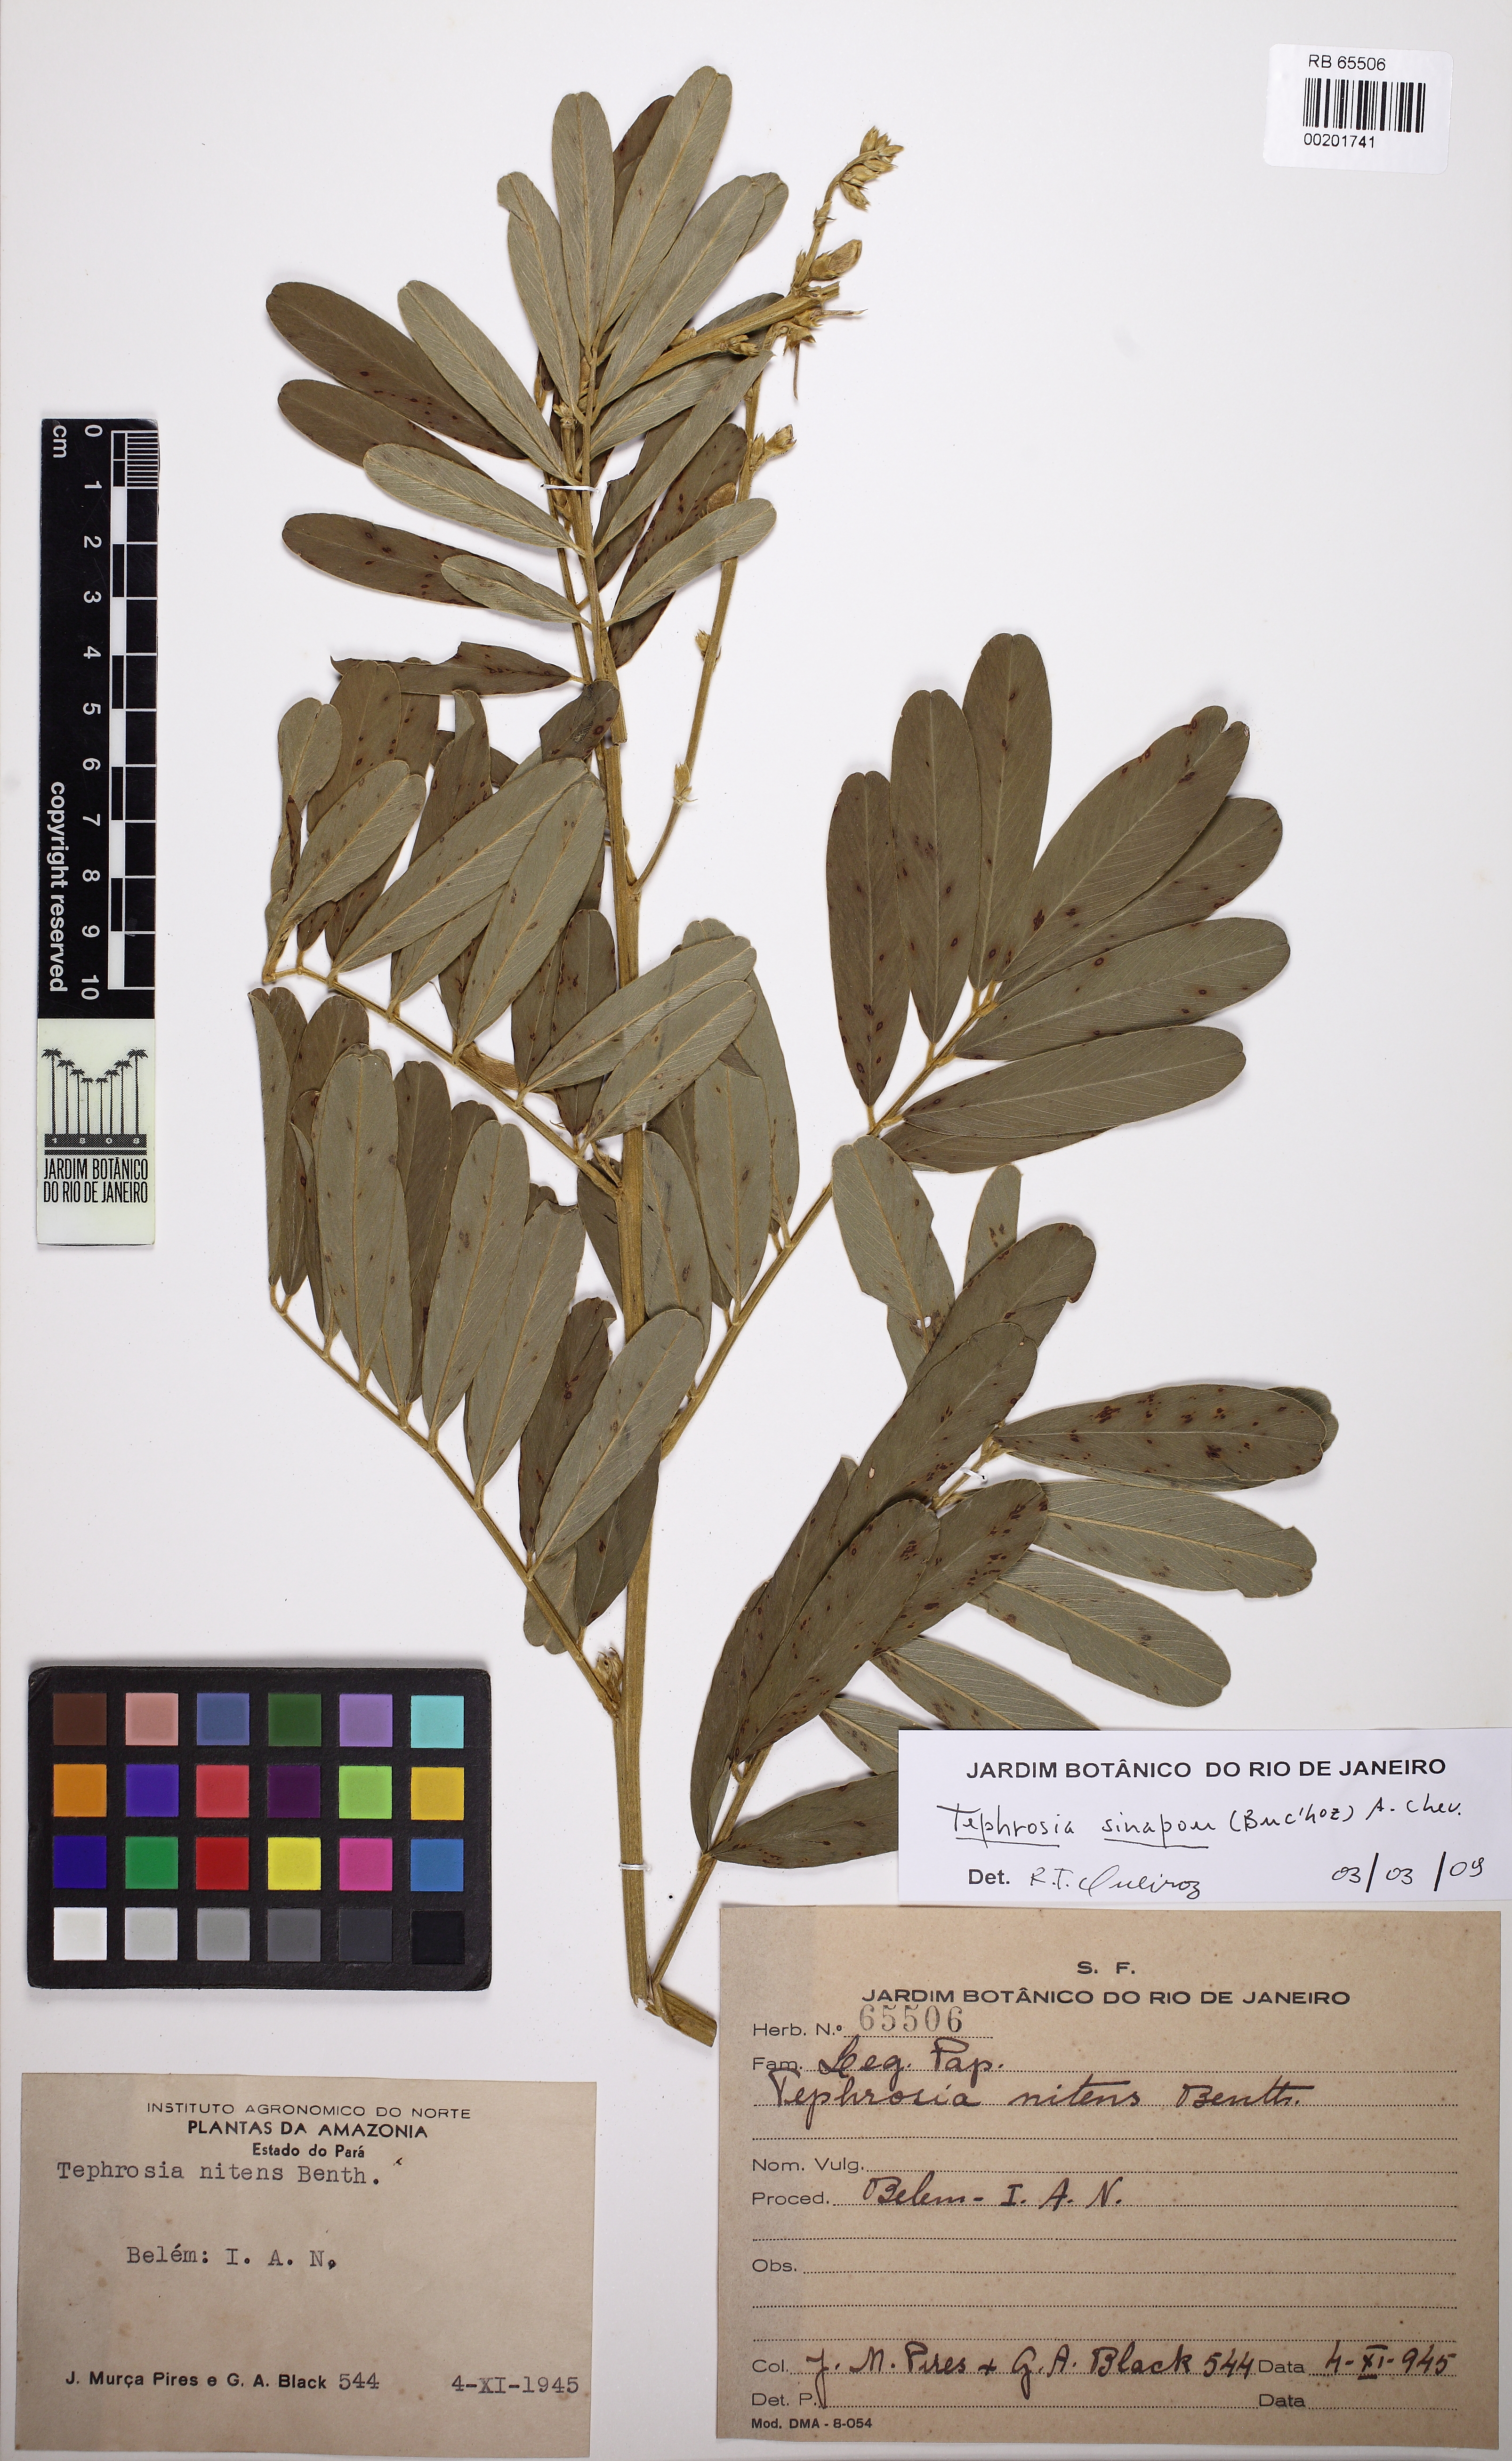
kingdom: Plantae
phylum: Tracheophyta
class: Magnoliopsida
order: Fabales
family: Fabaceae
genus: Tephrosia
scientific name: Tephrosia sinapou
